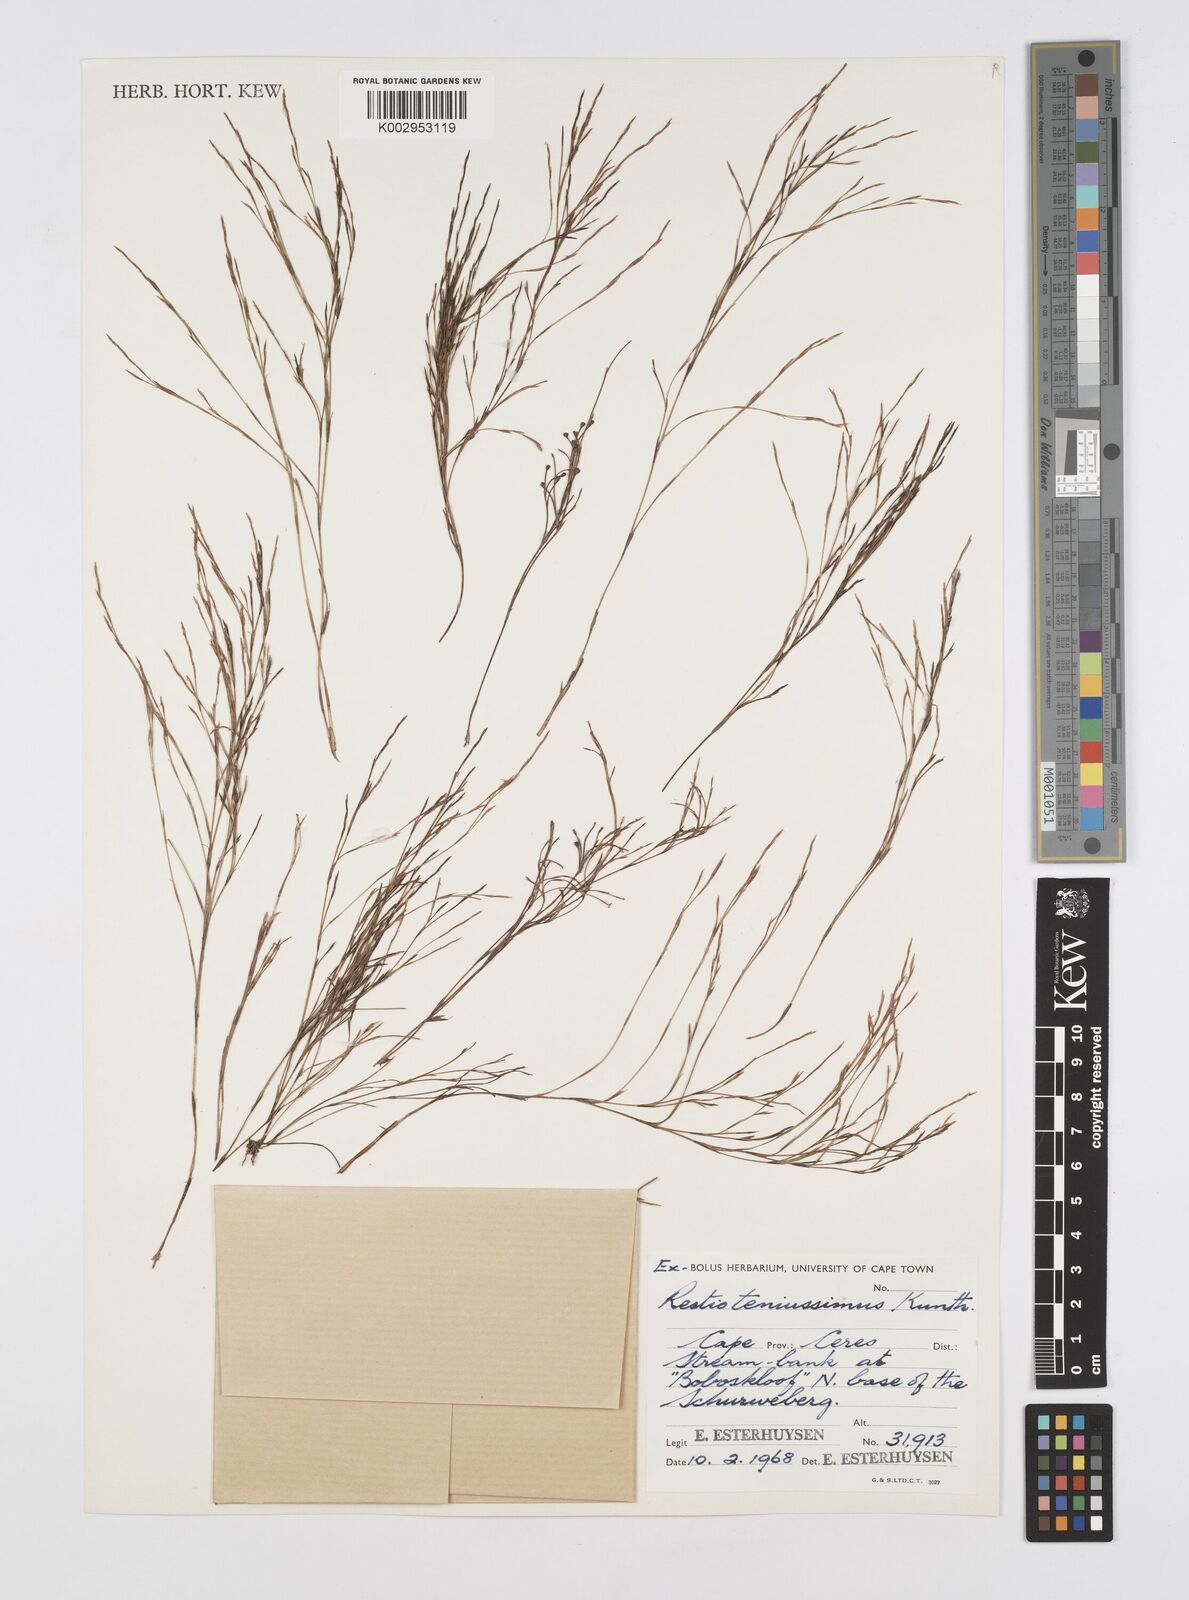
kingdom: Plantae
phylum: Tracheophyta
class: Liliopsida
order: Poales
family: Restionaceae
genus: Restio
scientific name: Restio tenuissimus
